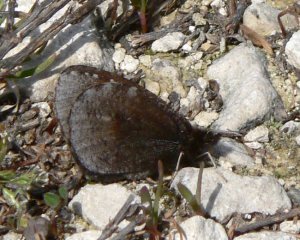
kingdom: Animalia
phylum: Arthropoda
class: Insecta
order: Lepidoptera
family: Nymphalidae
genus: Erebia
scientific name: Erebia discoidalis
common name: Red-disked Alpine
